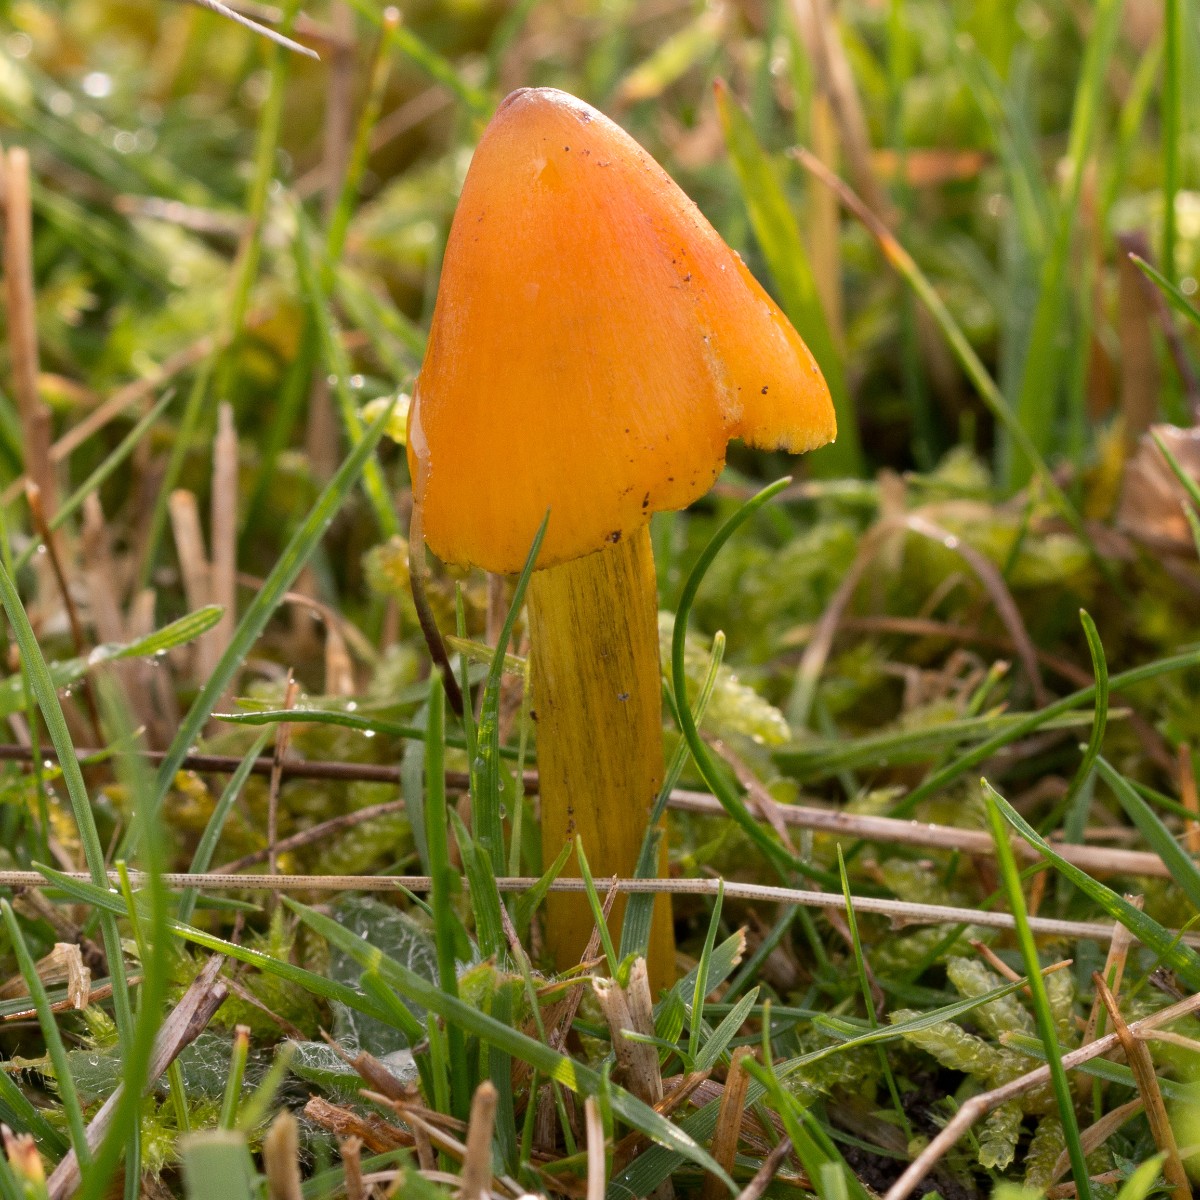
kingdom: Fungi
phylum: Basidiomycota
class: Agaricomycetes
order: Agaricales
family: Hygrophoraceae
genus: Hygrocybe
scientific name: Hygrocybe conica
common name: kegle-vokshat
